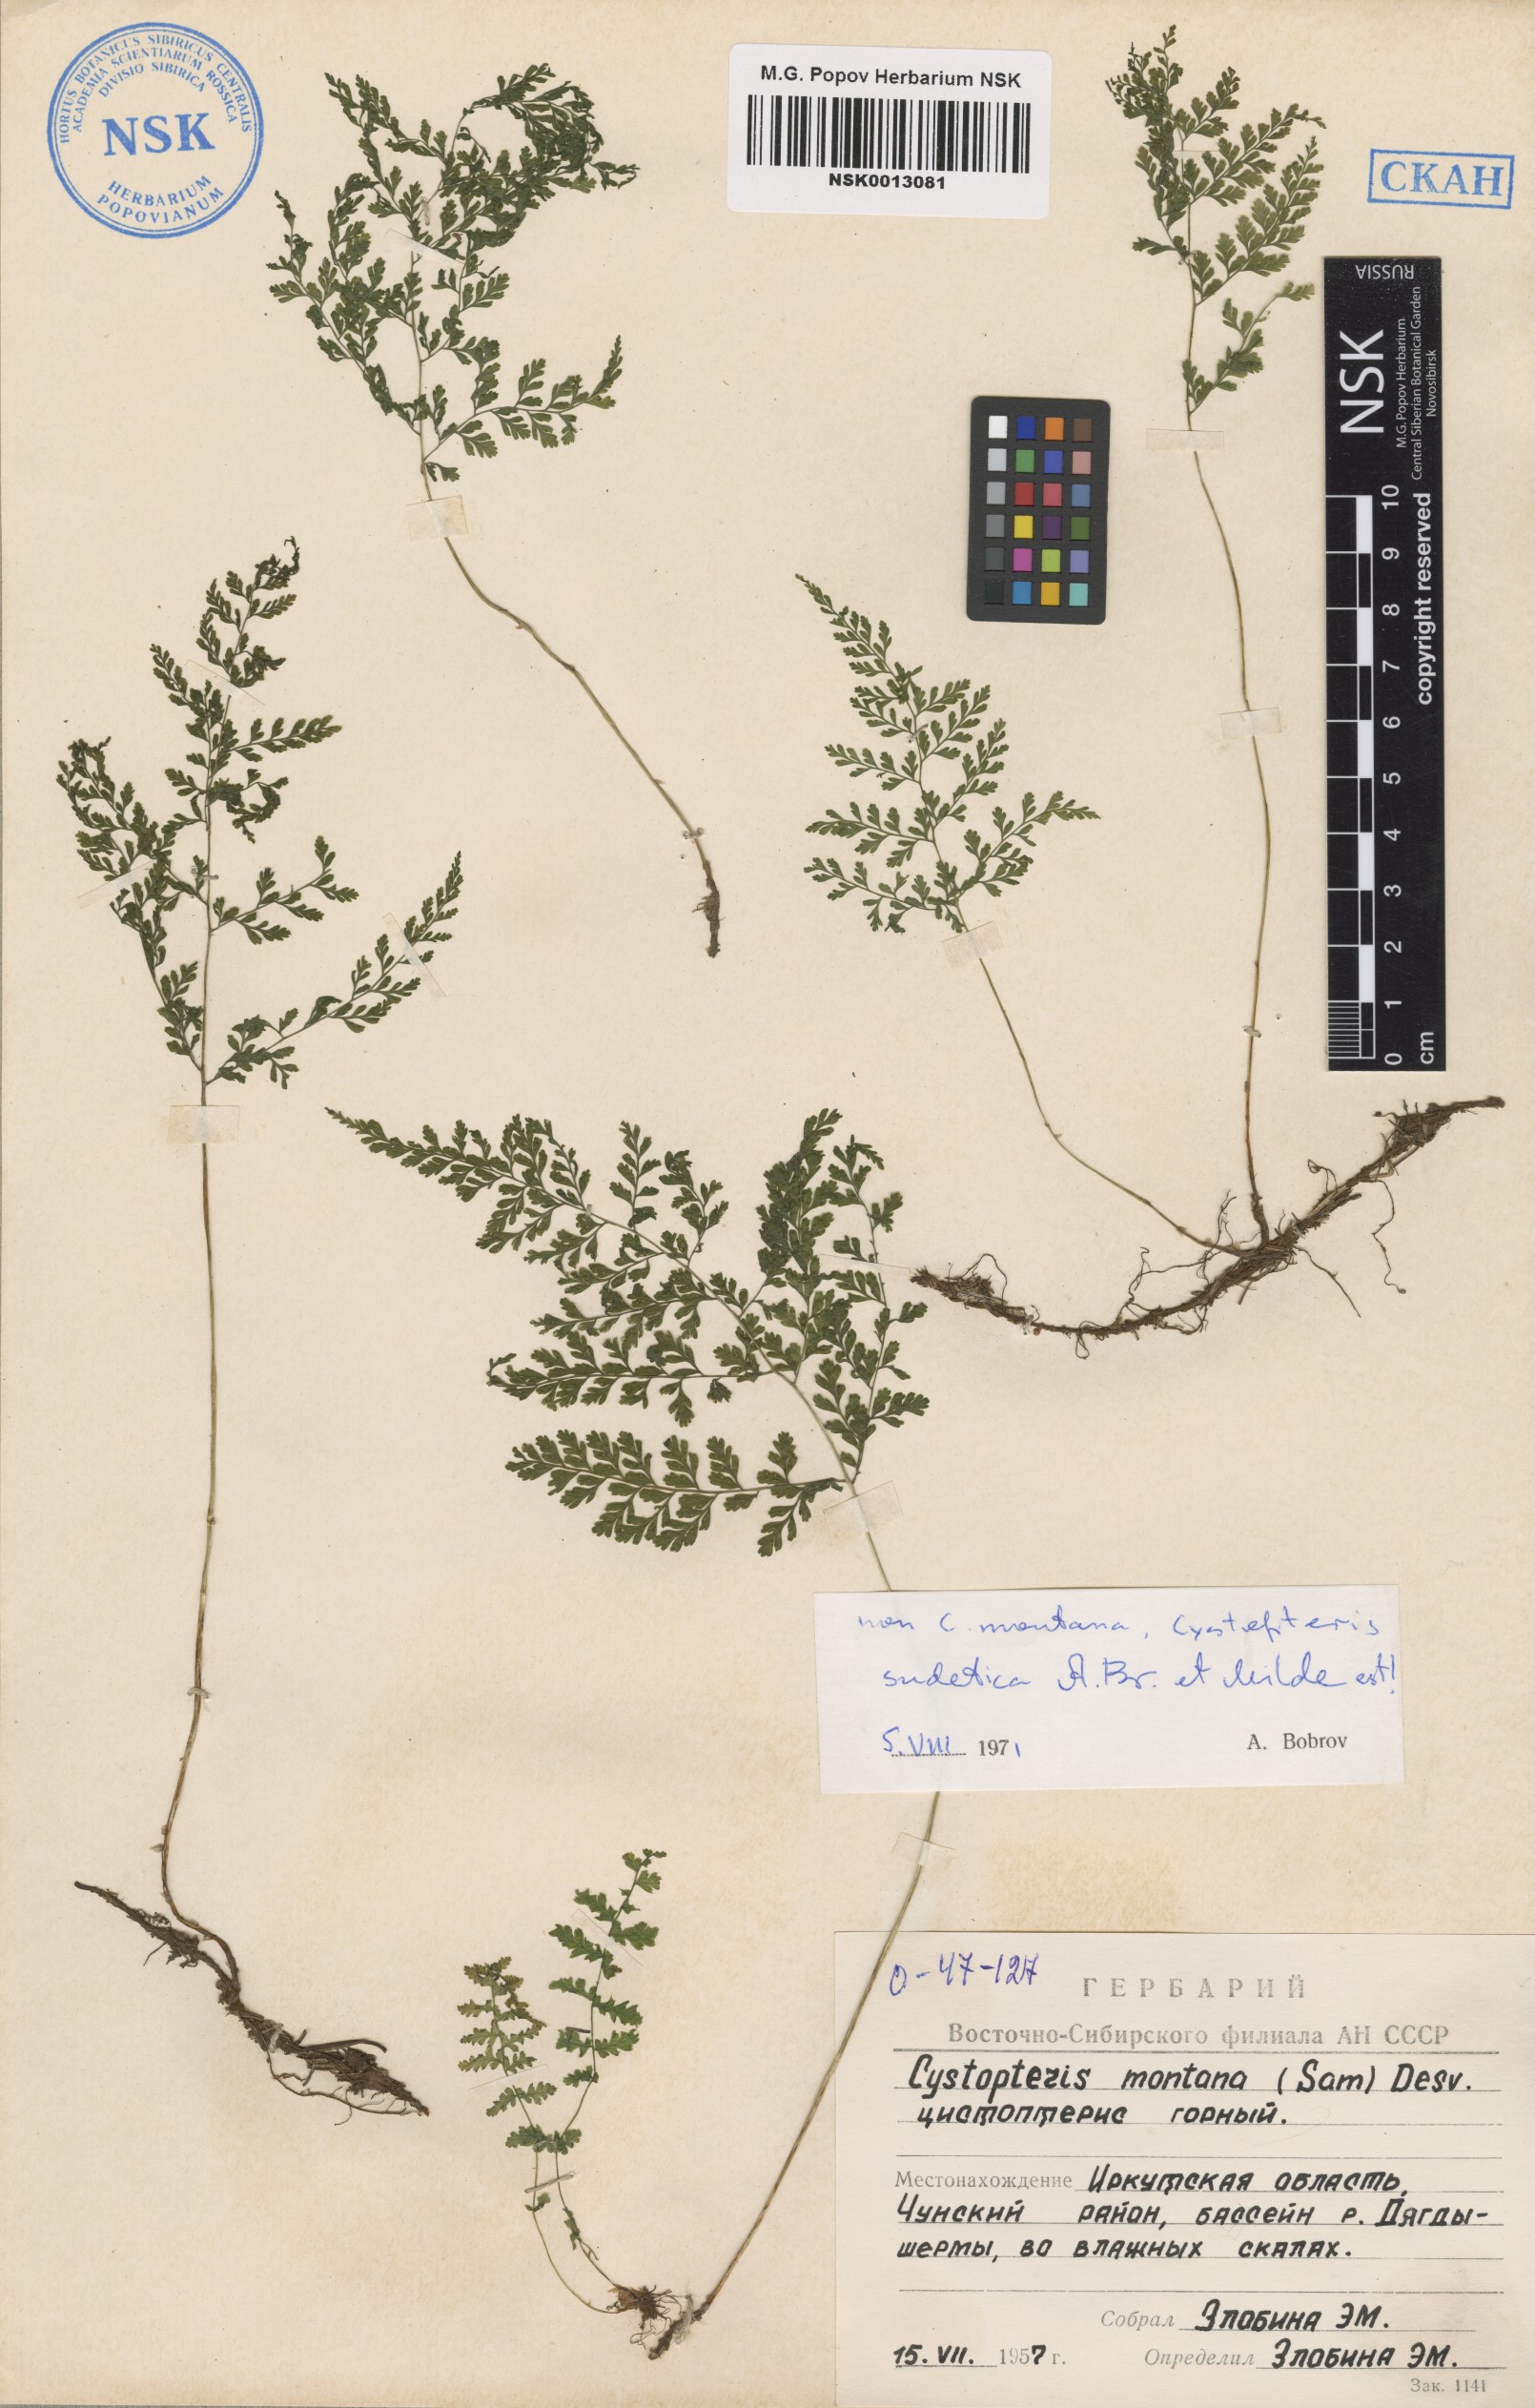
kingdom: Plantae
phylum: Tracheophyta
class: Polypodiopsida
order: Polypodiales
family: Cystopteridaceae
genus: Cystopteris
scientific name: Cystopteris sudetica
